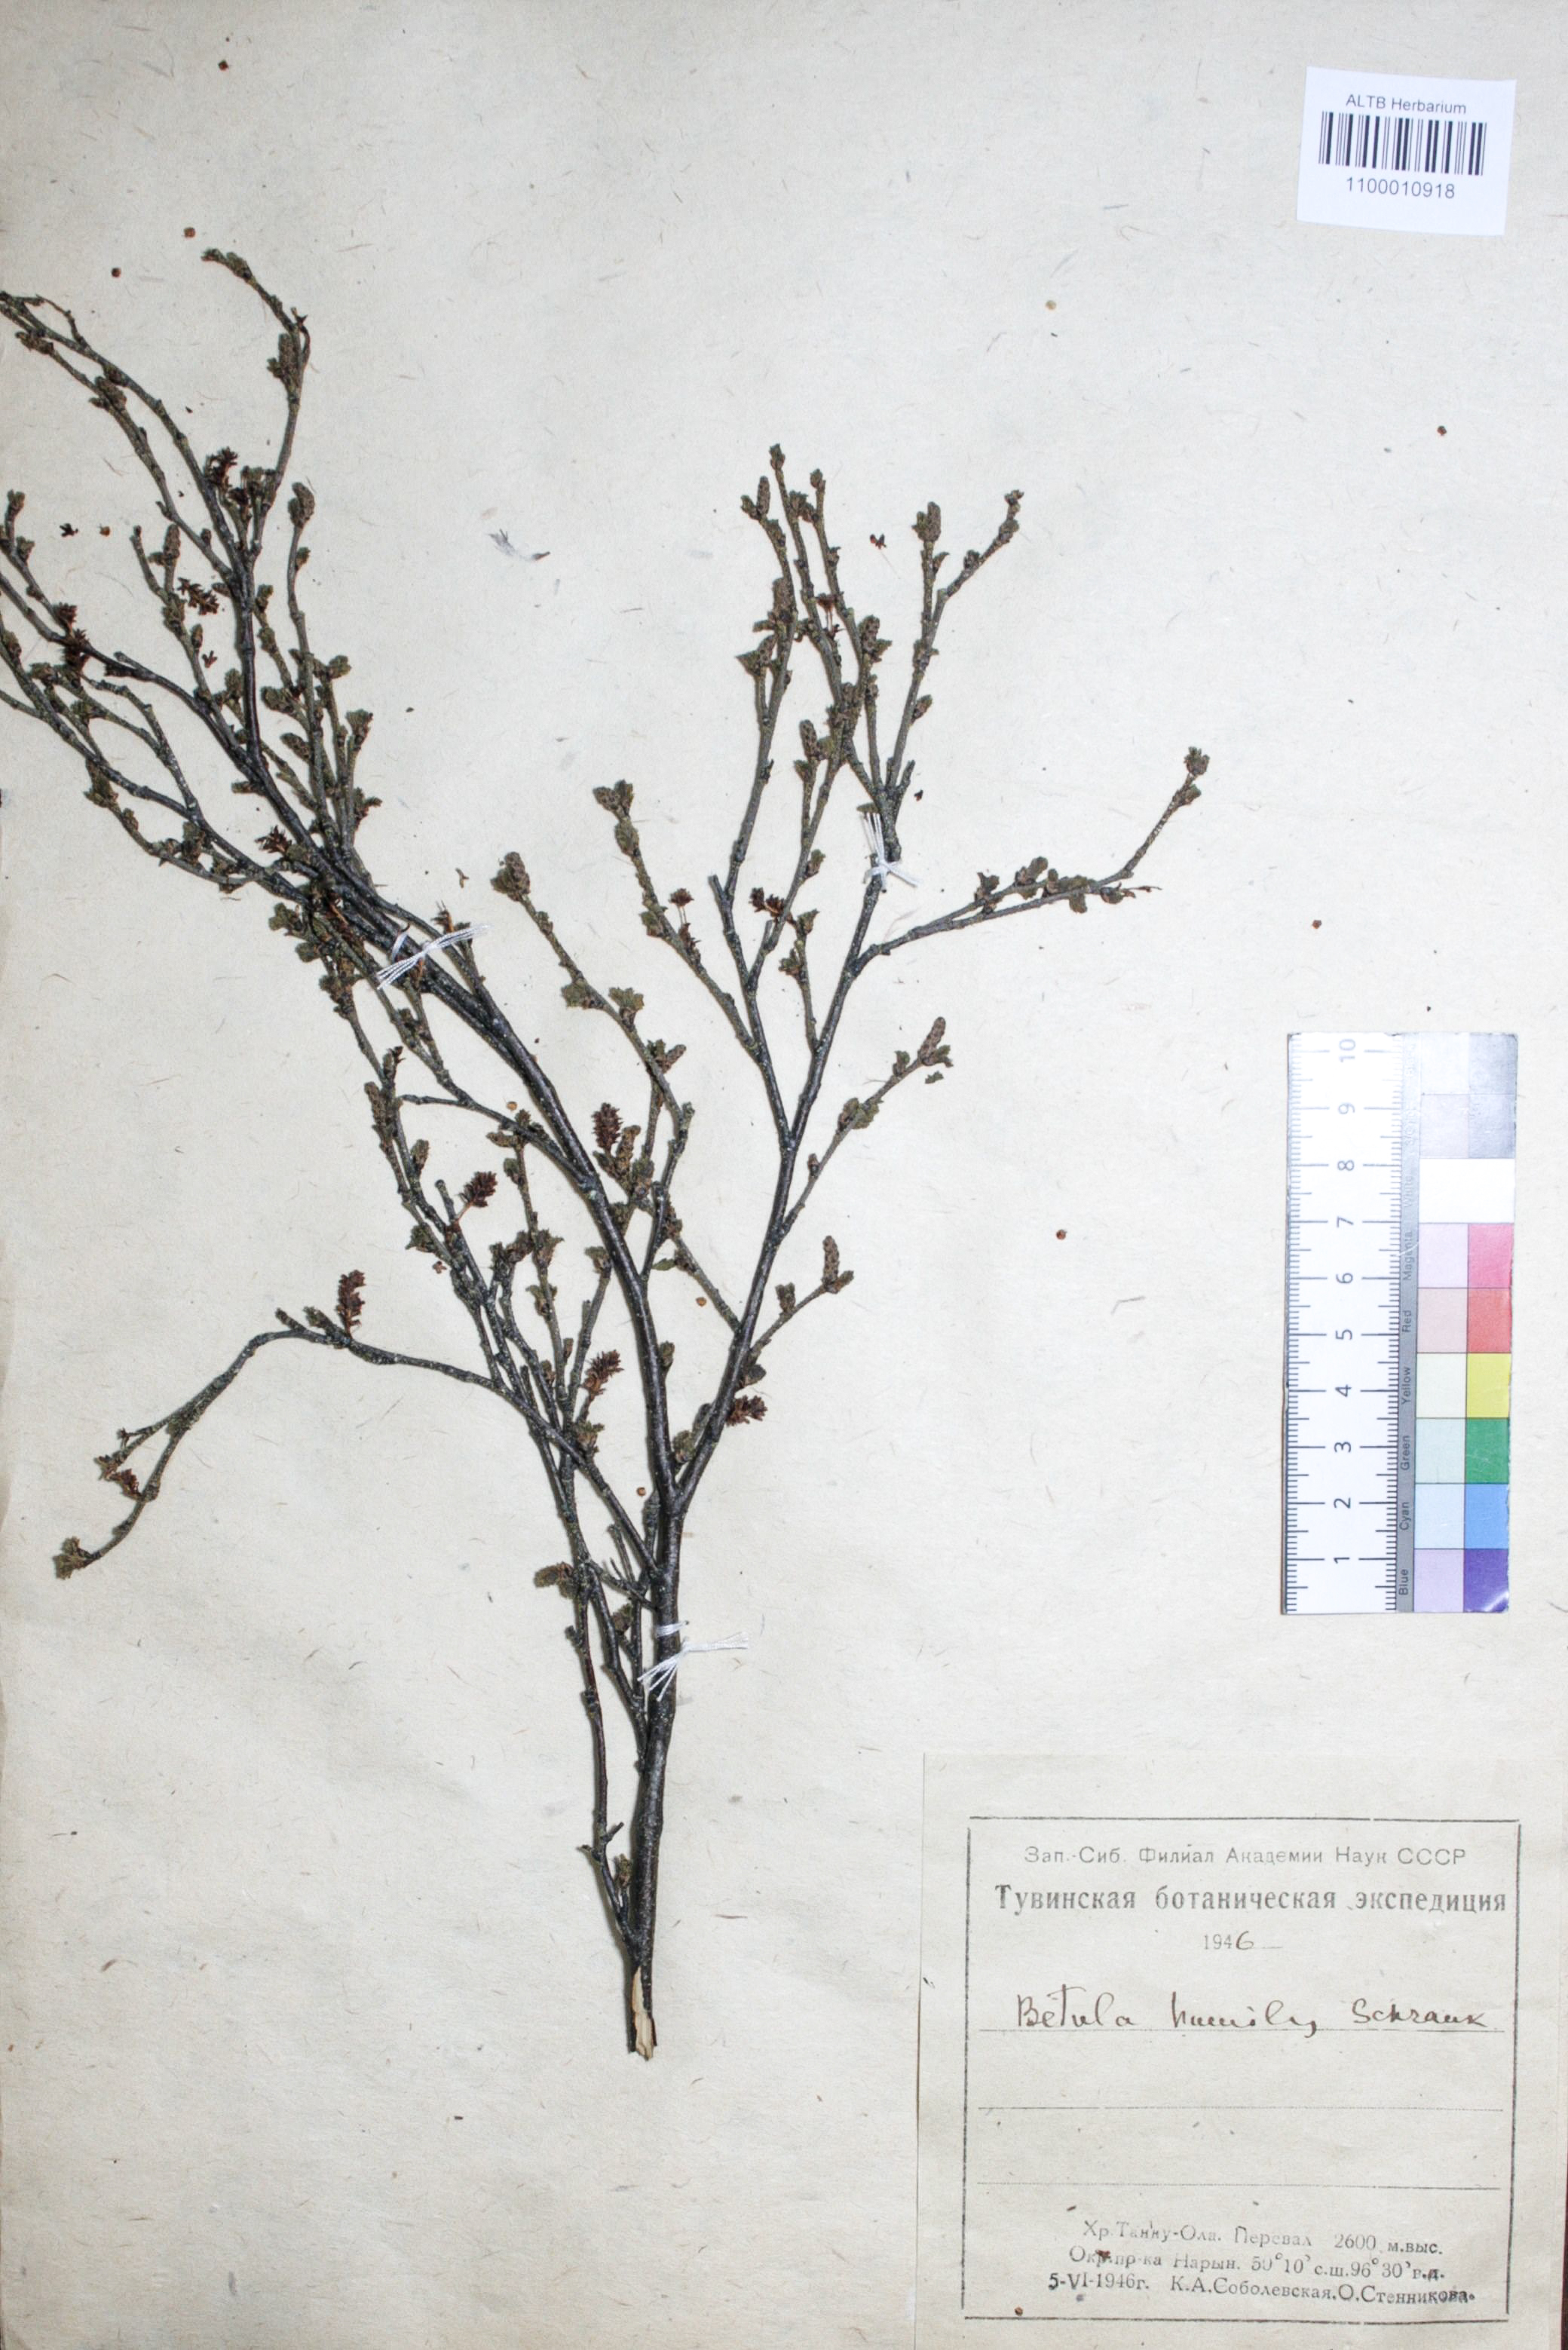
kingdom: Plantae
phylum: Tracheophyta
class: Magnoliopsida
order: Fagales
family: Betulaceae
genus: Betula
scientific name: Betula humilis
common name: Shrubby birch
